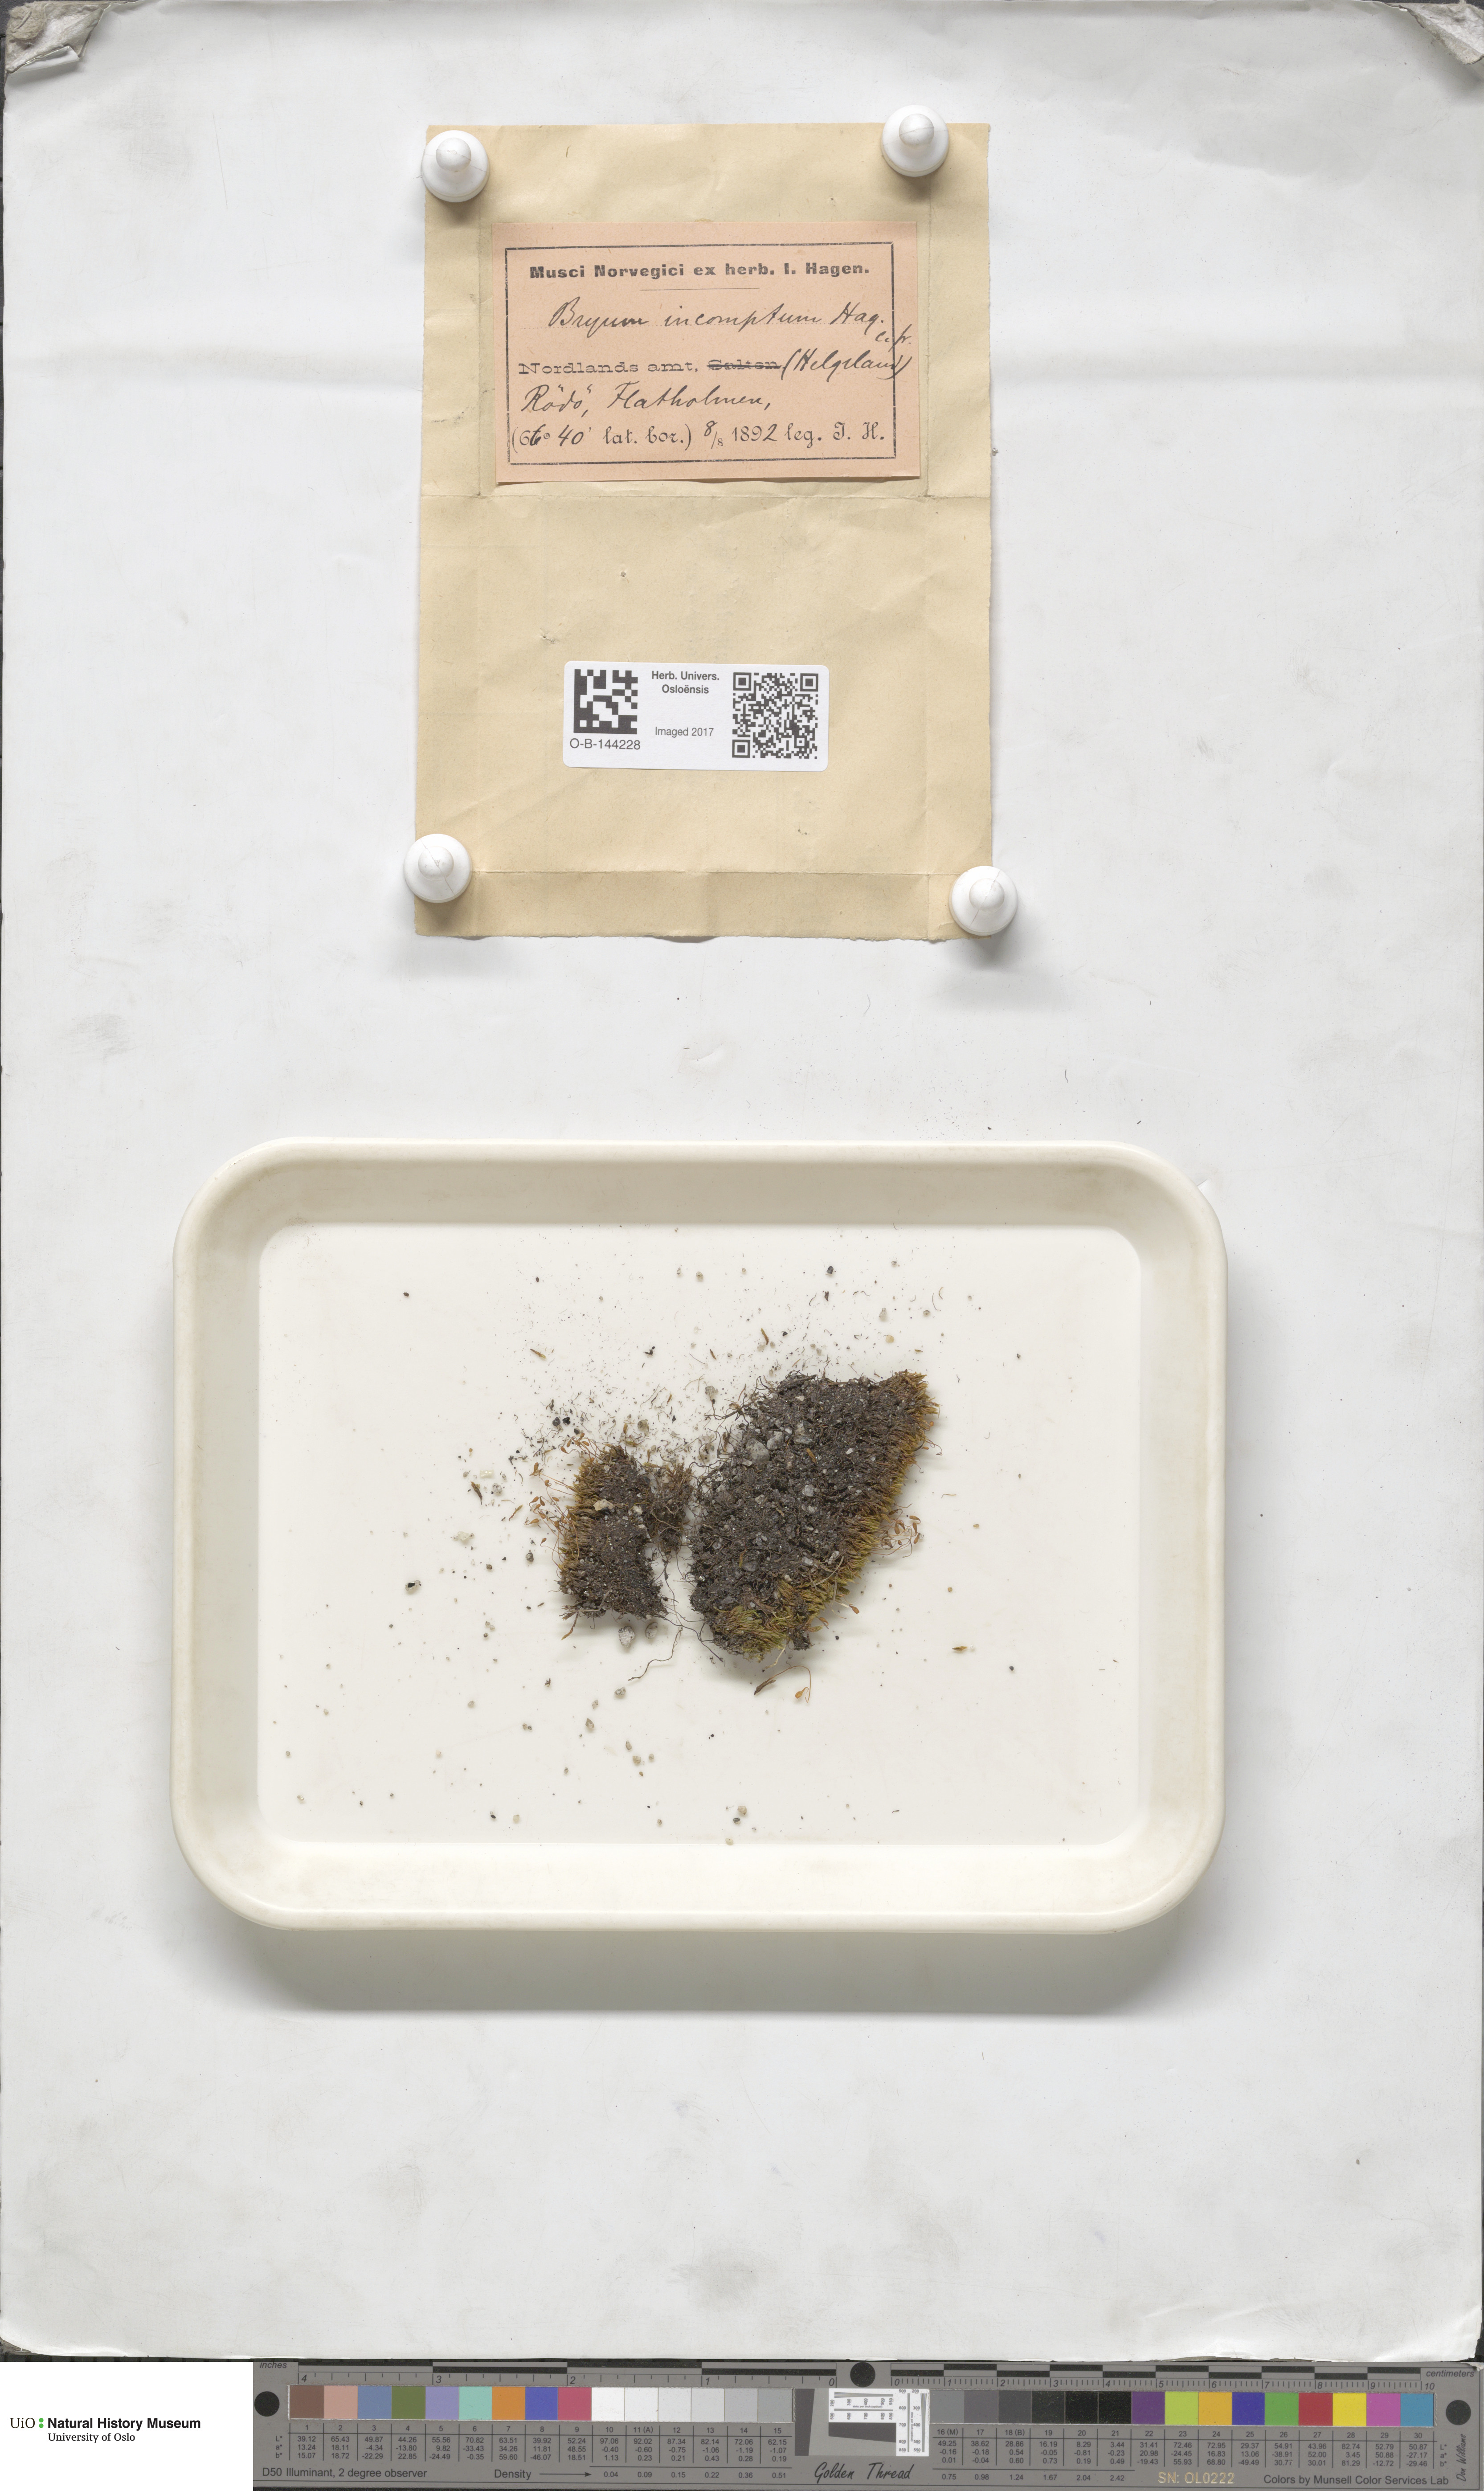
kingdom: Plantae
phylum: Bryophyta
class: Bryopsida
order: Bryales
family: Bryaceae
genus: Bryum
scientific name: Bryum
